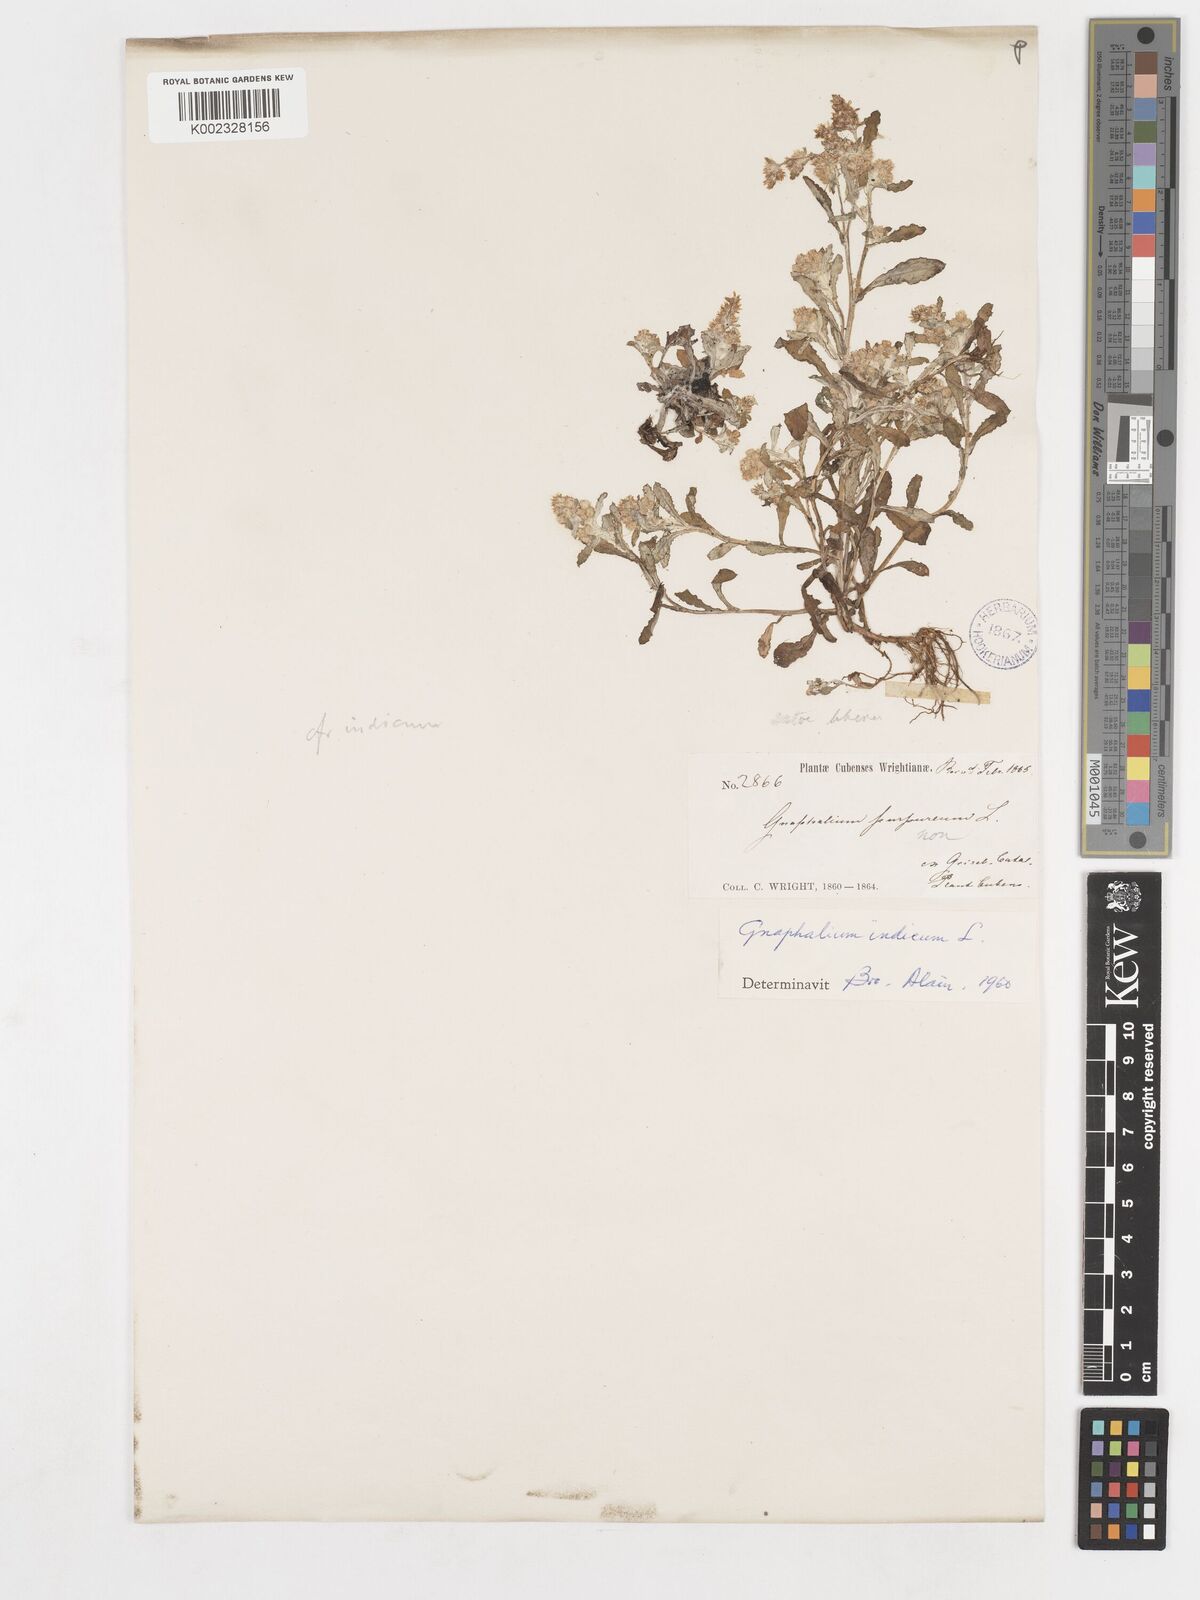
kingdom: Plantae
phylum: Tracheophyta
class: Magnoliopsida
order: Asterales
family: Asteraceae
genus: Gamochaeta
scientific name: Gamochaeta purpurea
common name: Purple cudweed
